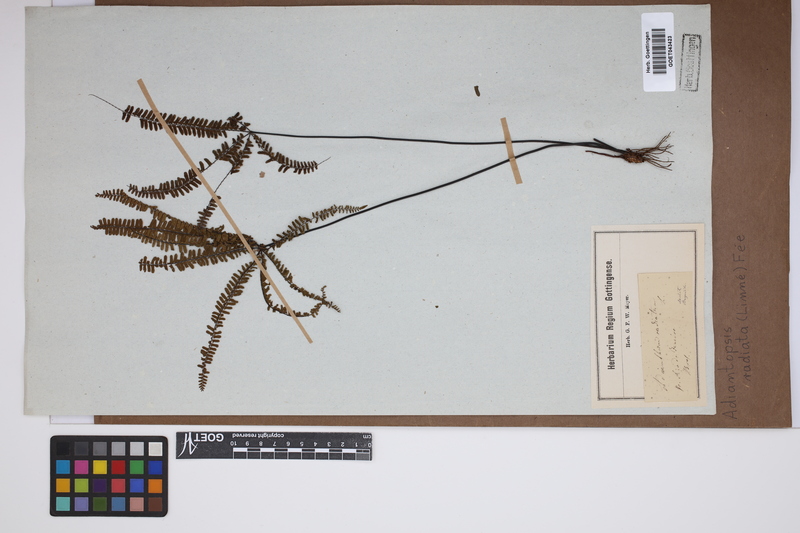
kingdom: Plantae
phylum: Tracheophyta
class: Polypodiopsida
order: Polypodiales
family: Pteridaceae
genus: Adiantopsis
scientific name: Adiantopsis radiata
